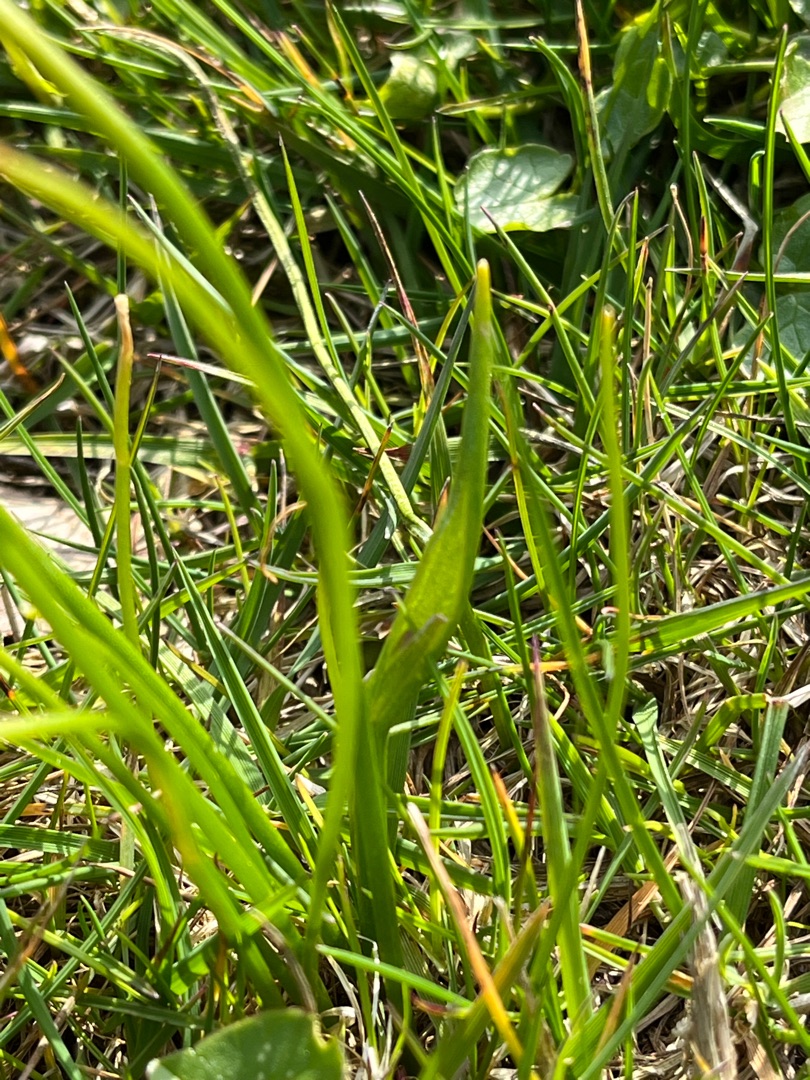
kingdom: Plantae
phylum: Tracheophyta
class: Liliopsida
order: Liliales
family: Liliaceae
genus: Gagea
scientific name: Gagea spathacea
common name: Hylster-guldstjerne
